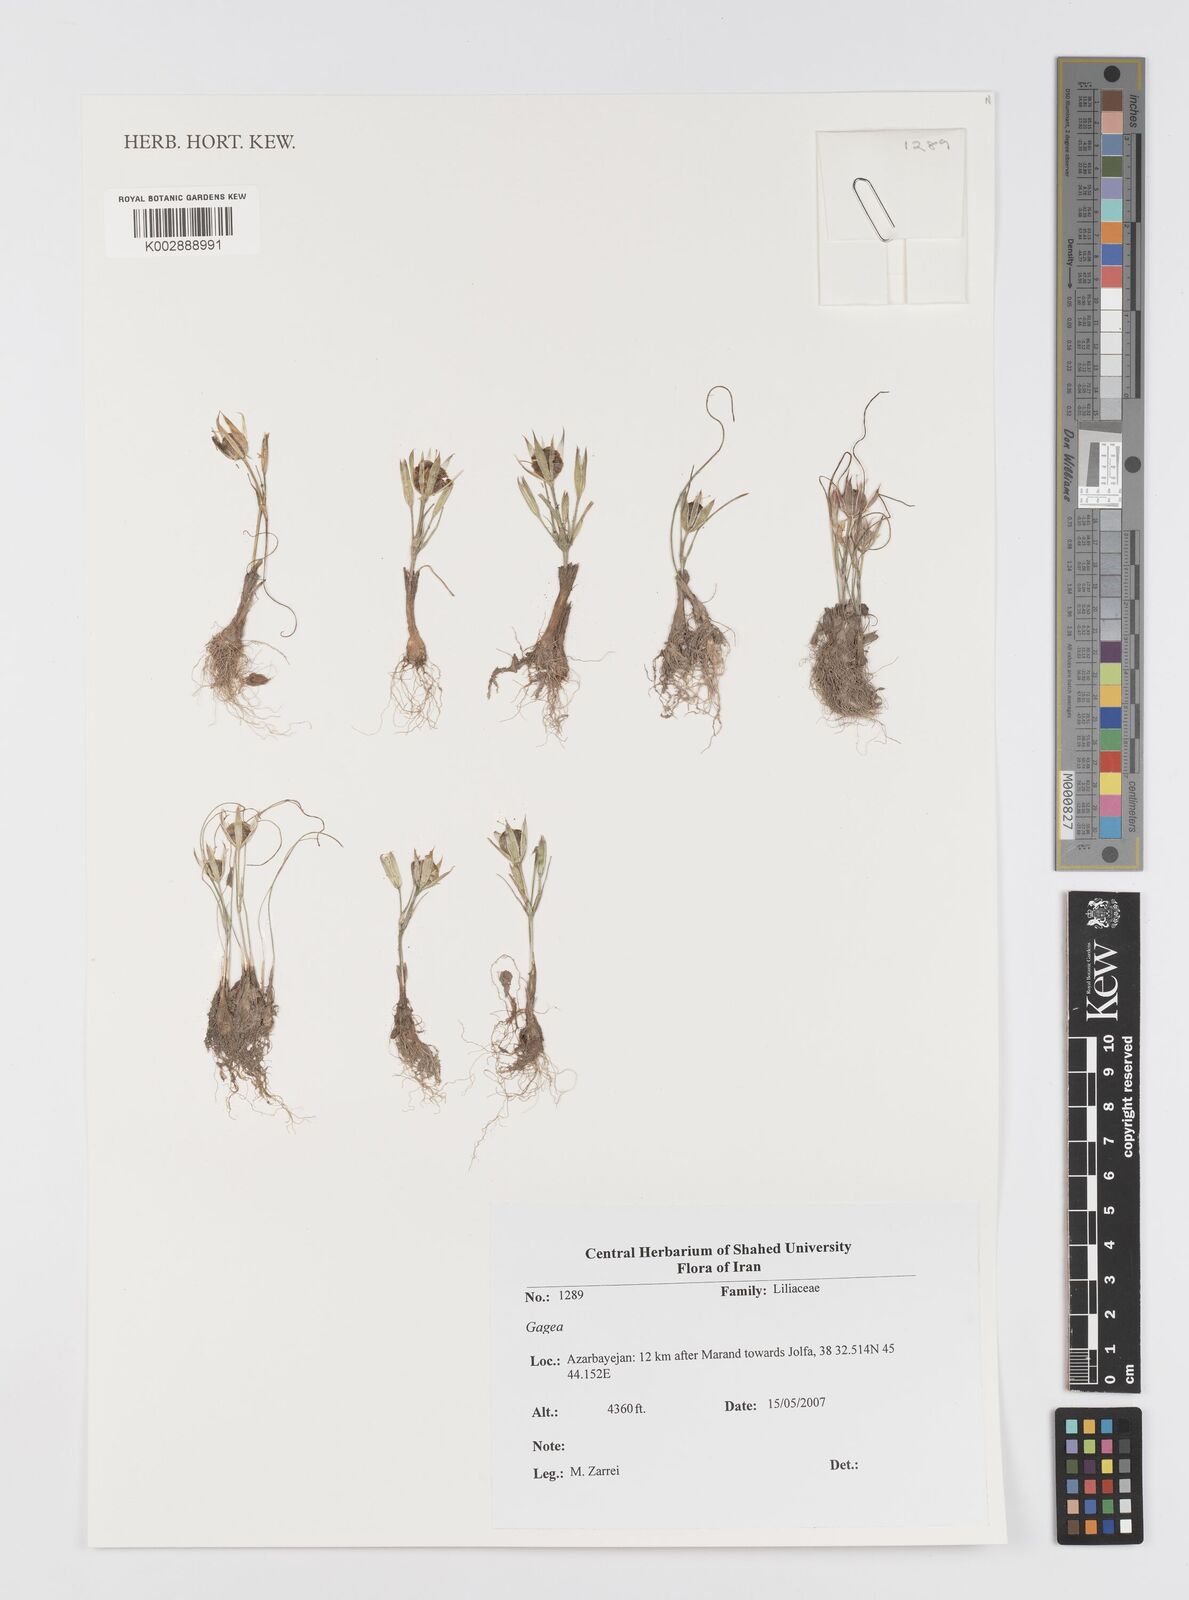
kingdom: Plantae
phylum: Tracheophyta
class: Liliopsida
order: Liliales
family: Liliaceae
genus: Gagea
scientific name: Gagea
